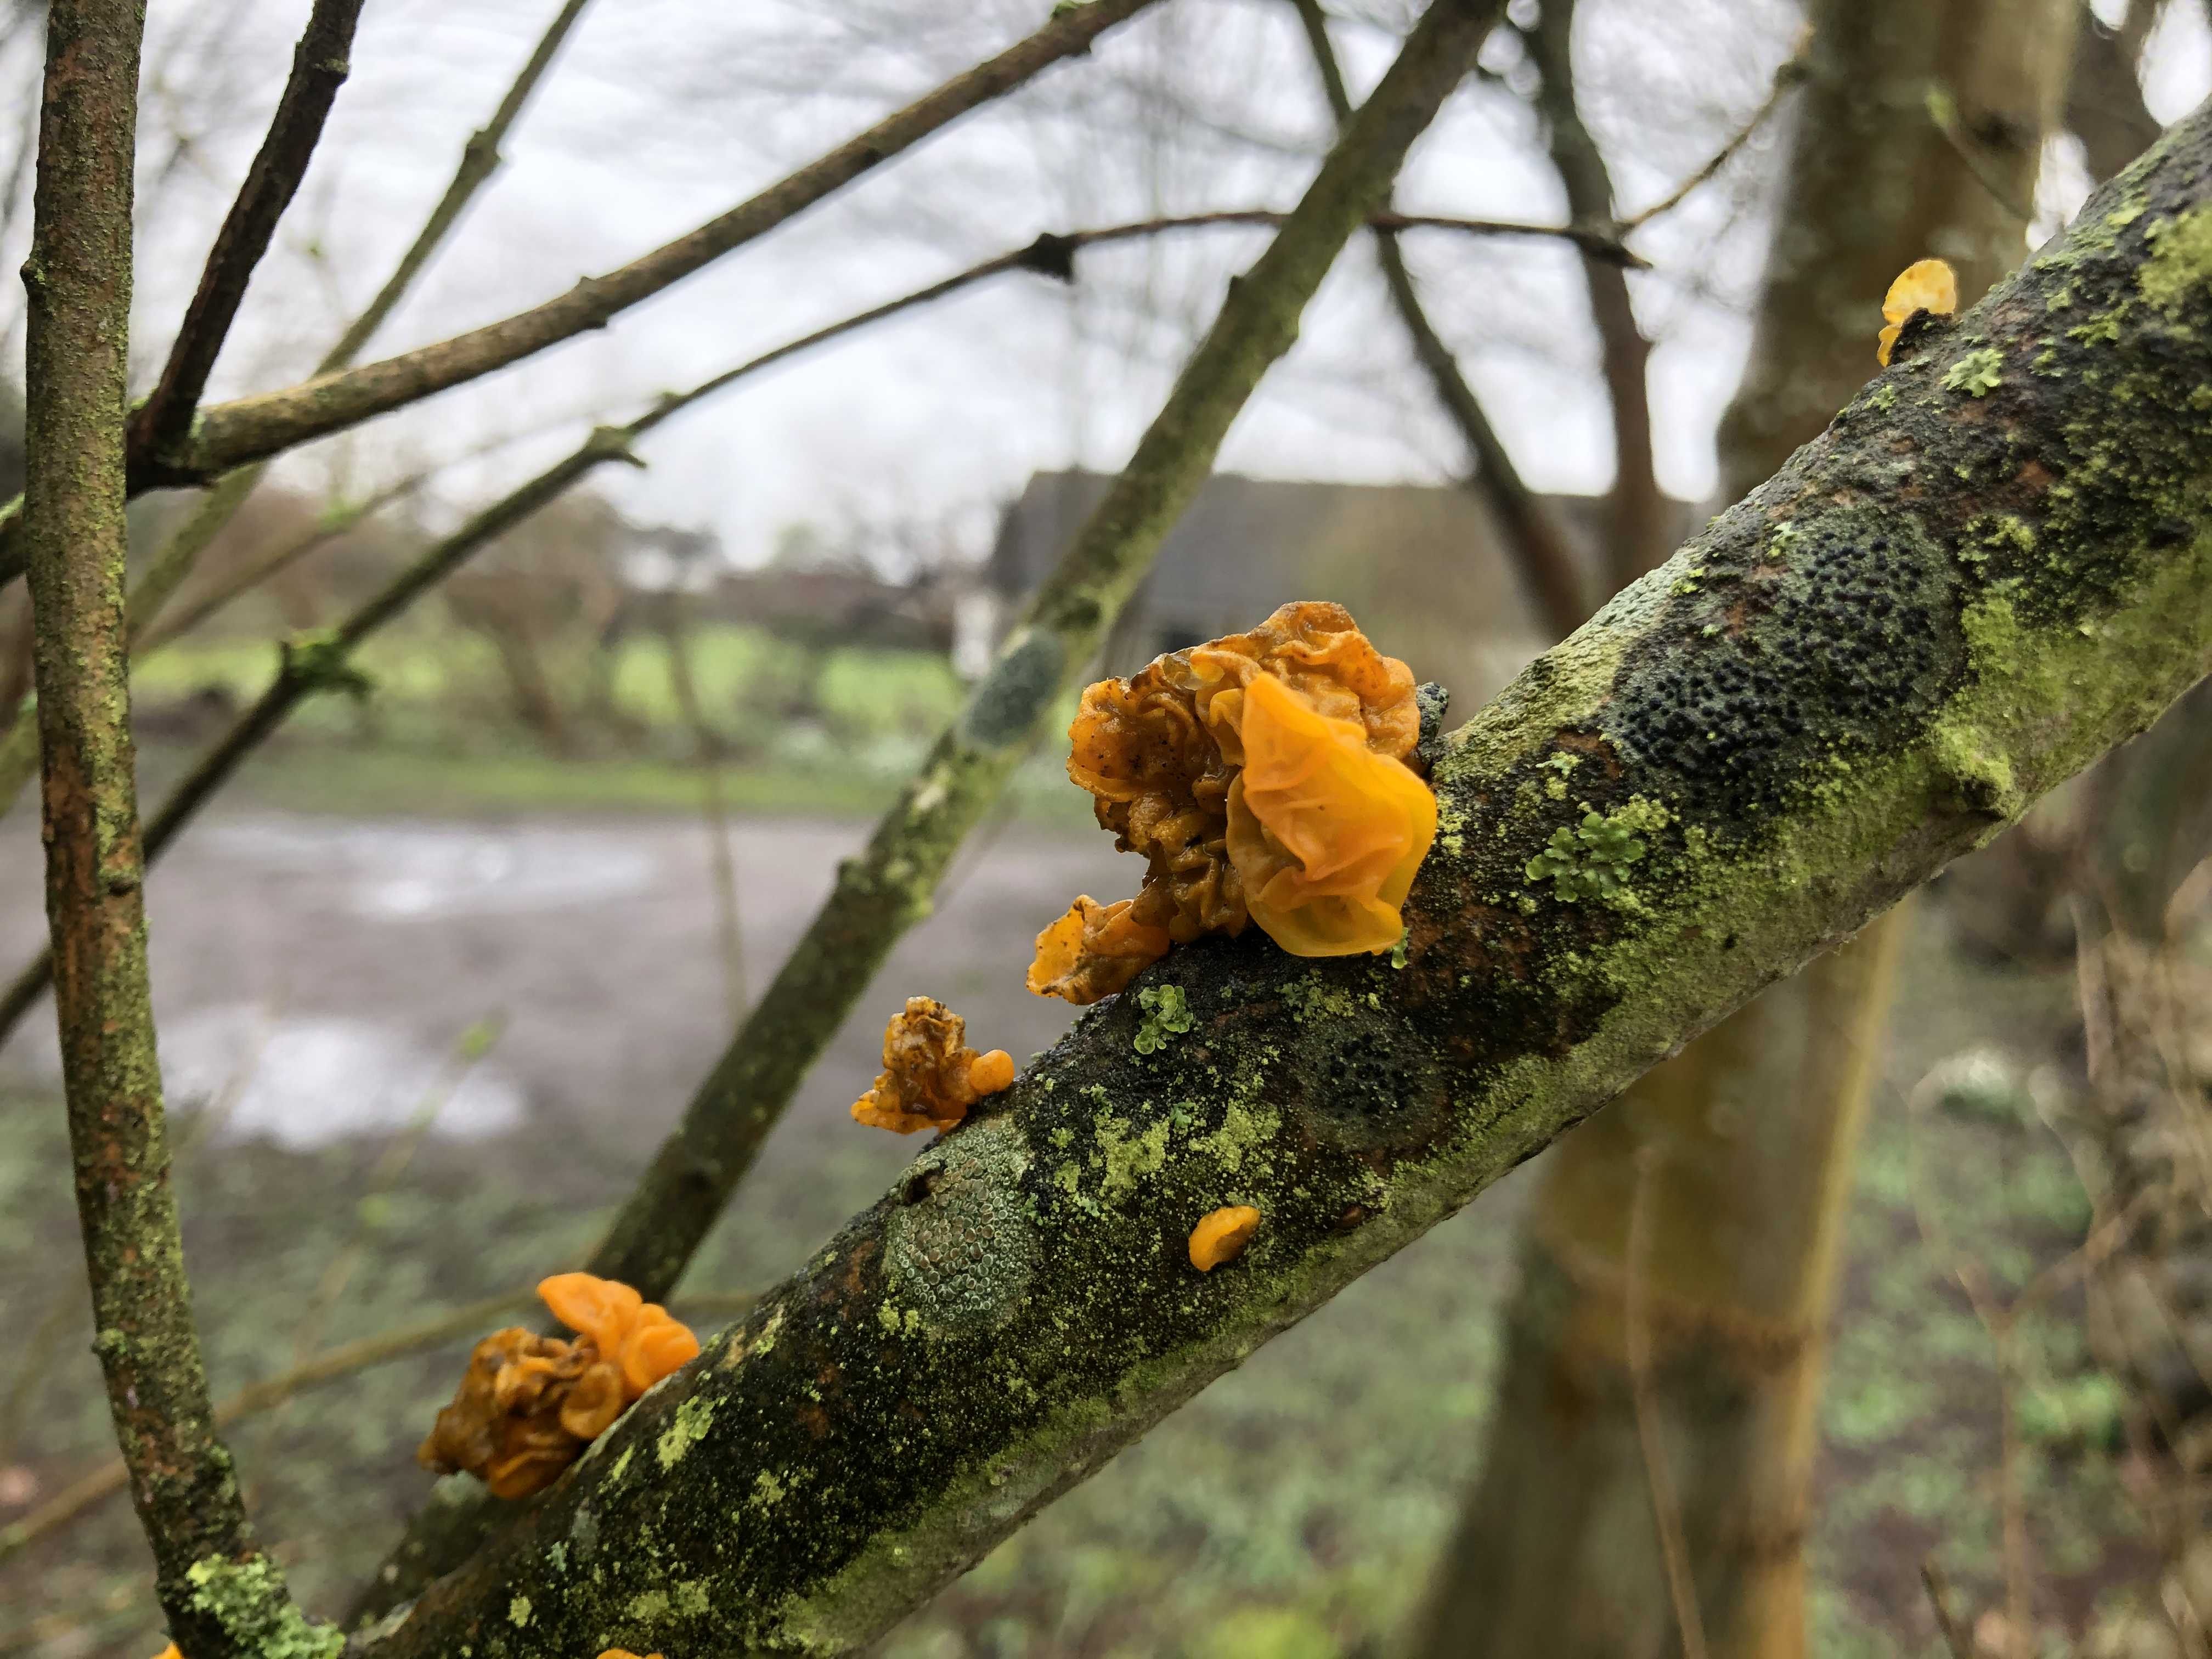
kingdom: Fungi
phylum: Basidiomycota
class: Tremellomycetes
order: Tremellales
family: Tremellaceae
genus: Tremella
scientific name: Tremella mesenterica
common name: gul bævresvamp
